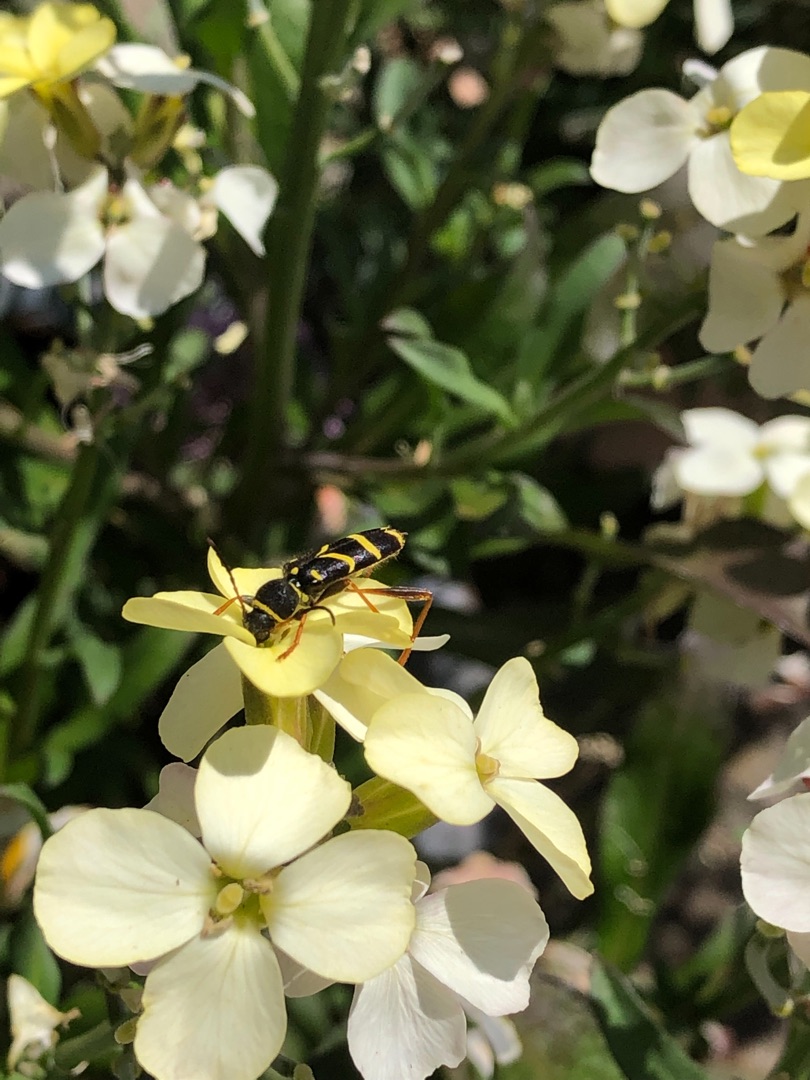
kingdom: Animalia
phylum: Arthropoda
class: Insecta
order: Coleoptera
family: Cerambycidae
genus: Clytus
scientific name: Clytus arietis
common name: Lille hvepsebuk
